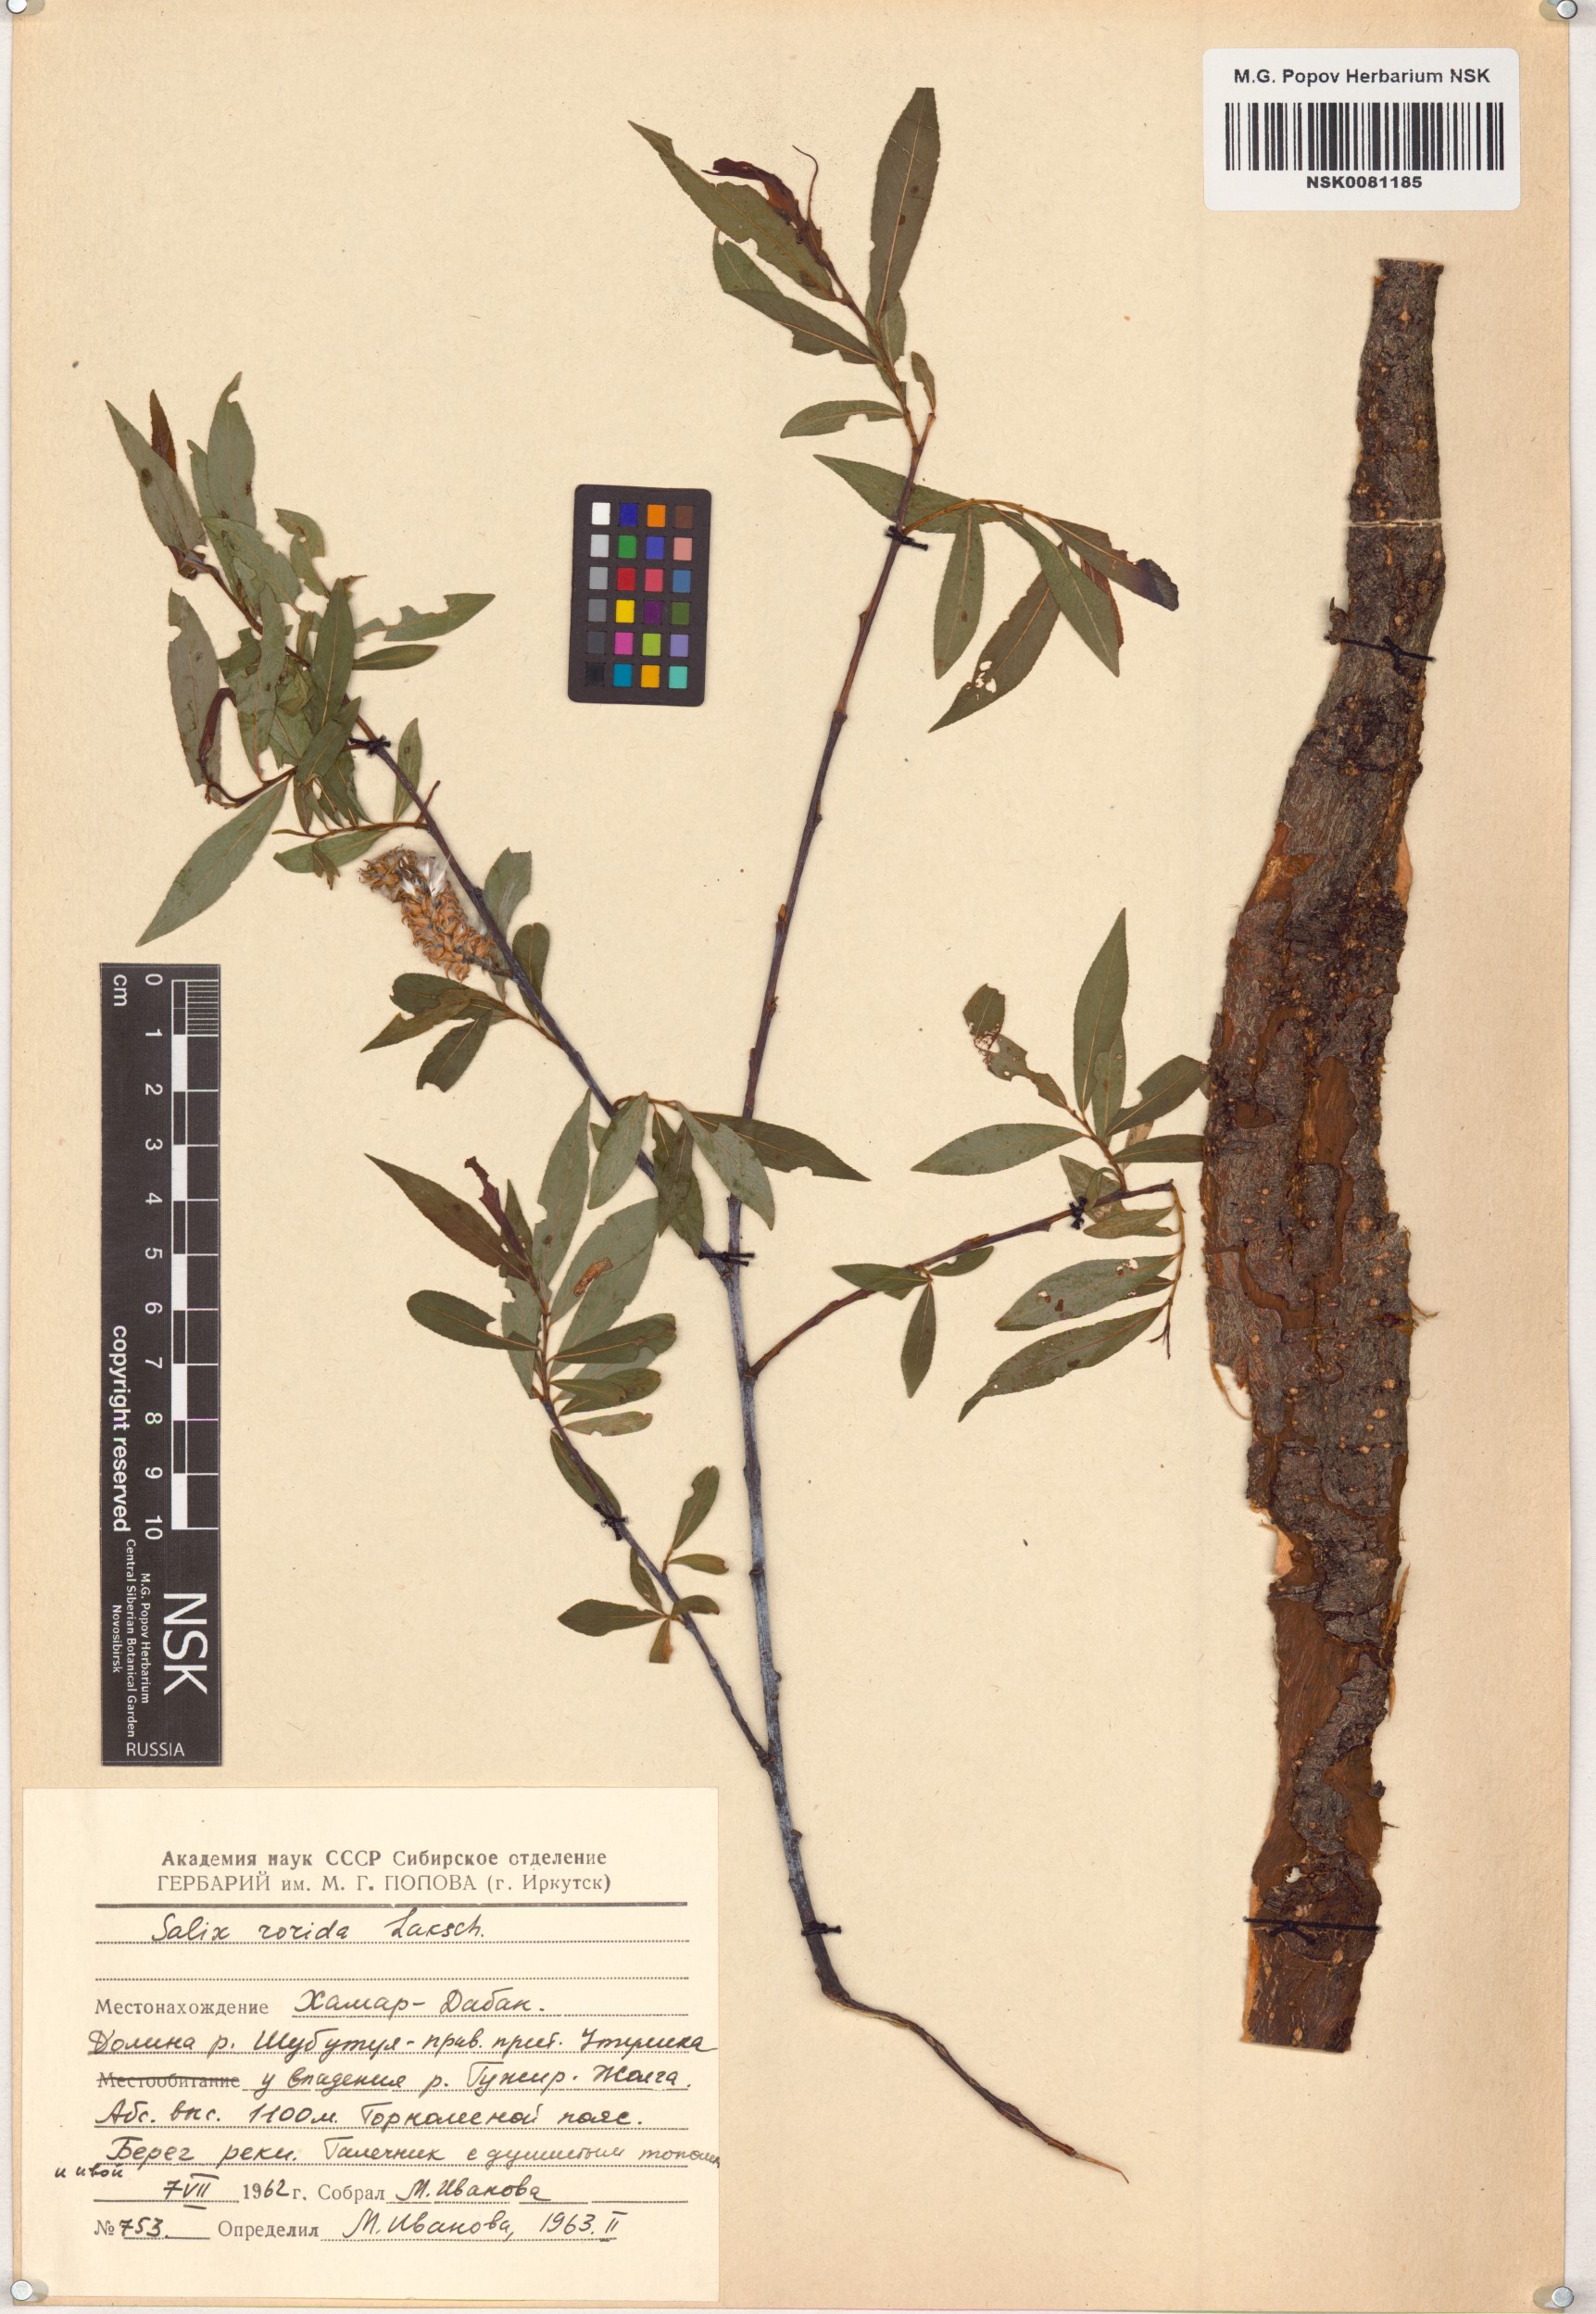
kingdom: Plantae
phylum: Tracheophyta
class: Magnoliopsida
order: Malpighiales
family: Salicaceae
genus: Salix
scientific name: Salix rorida
